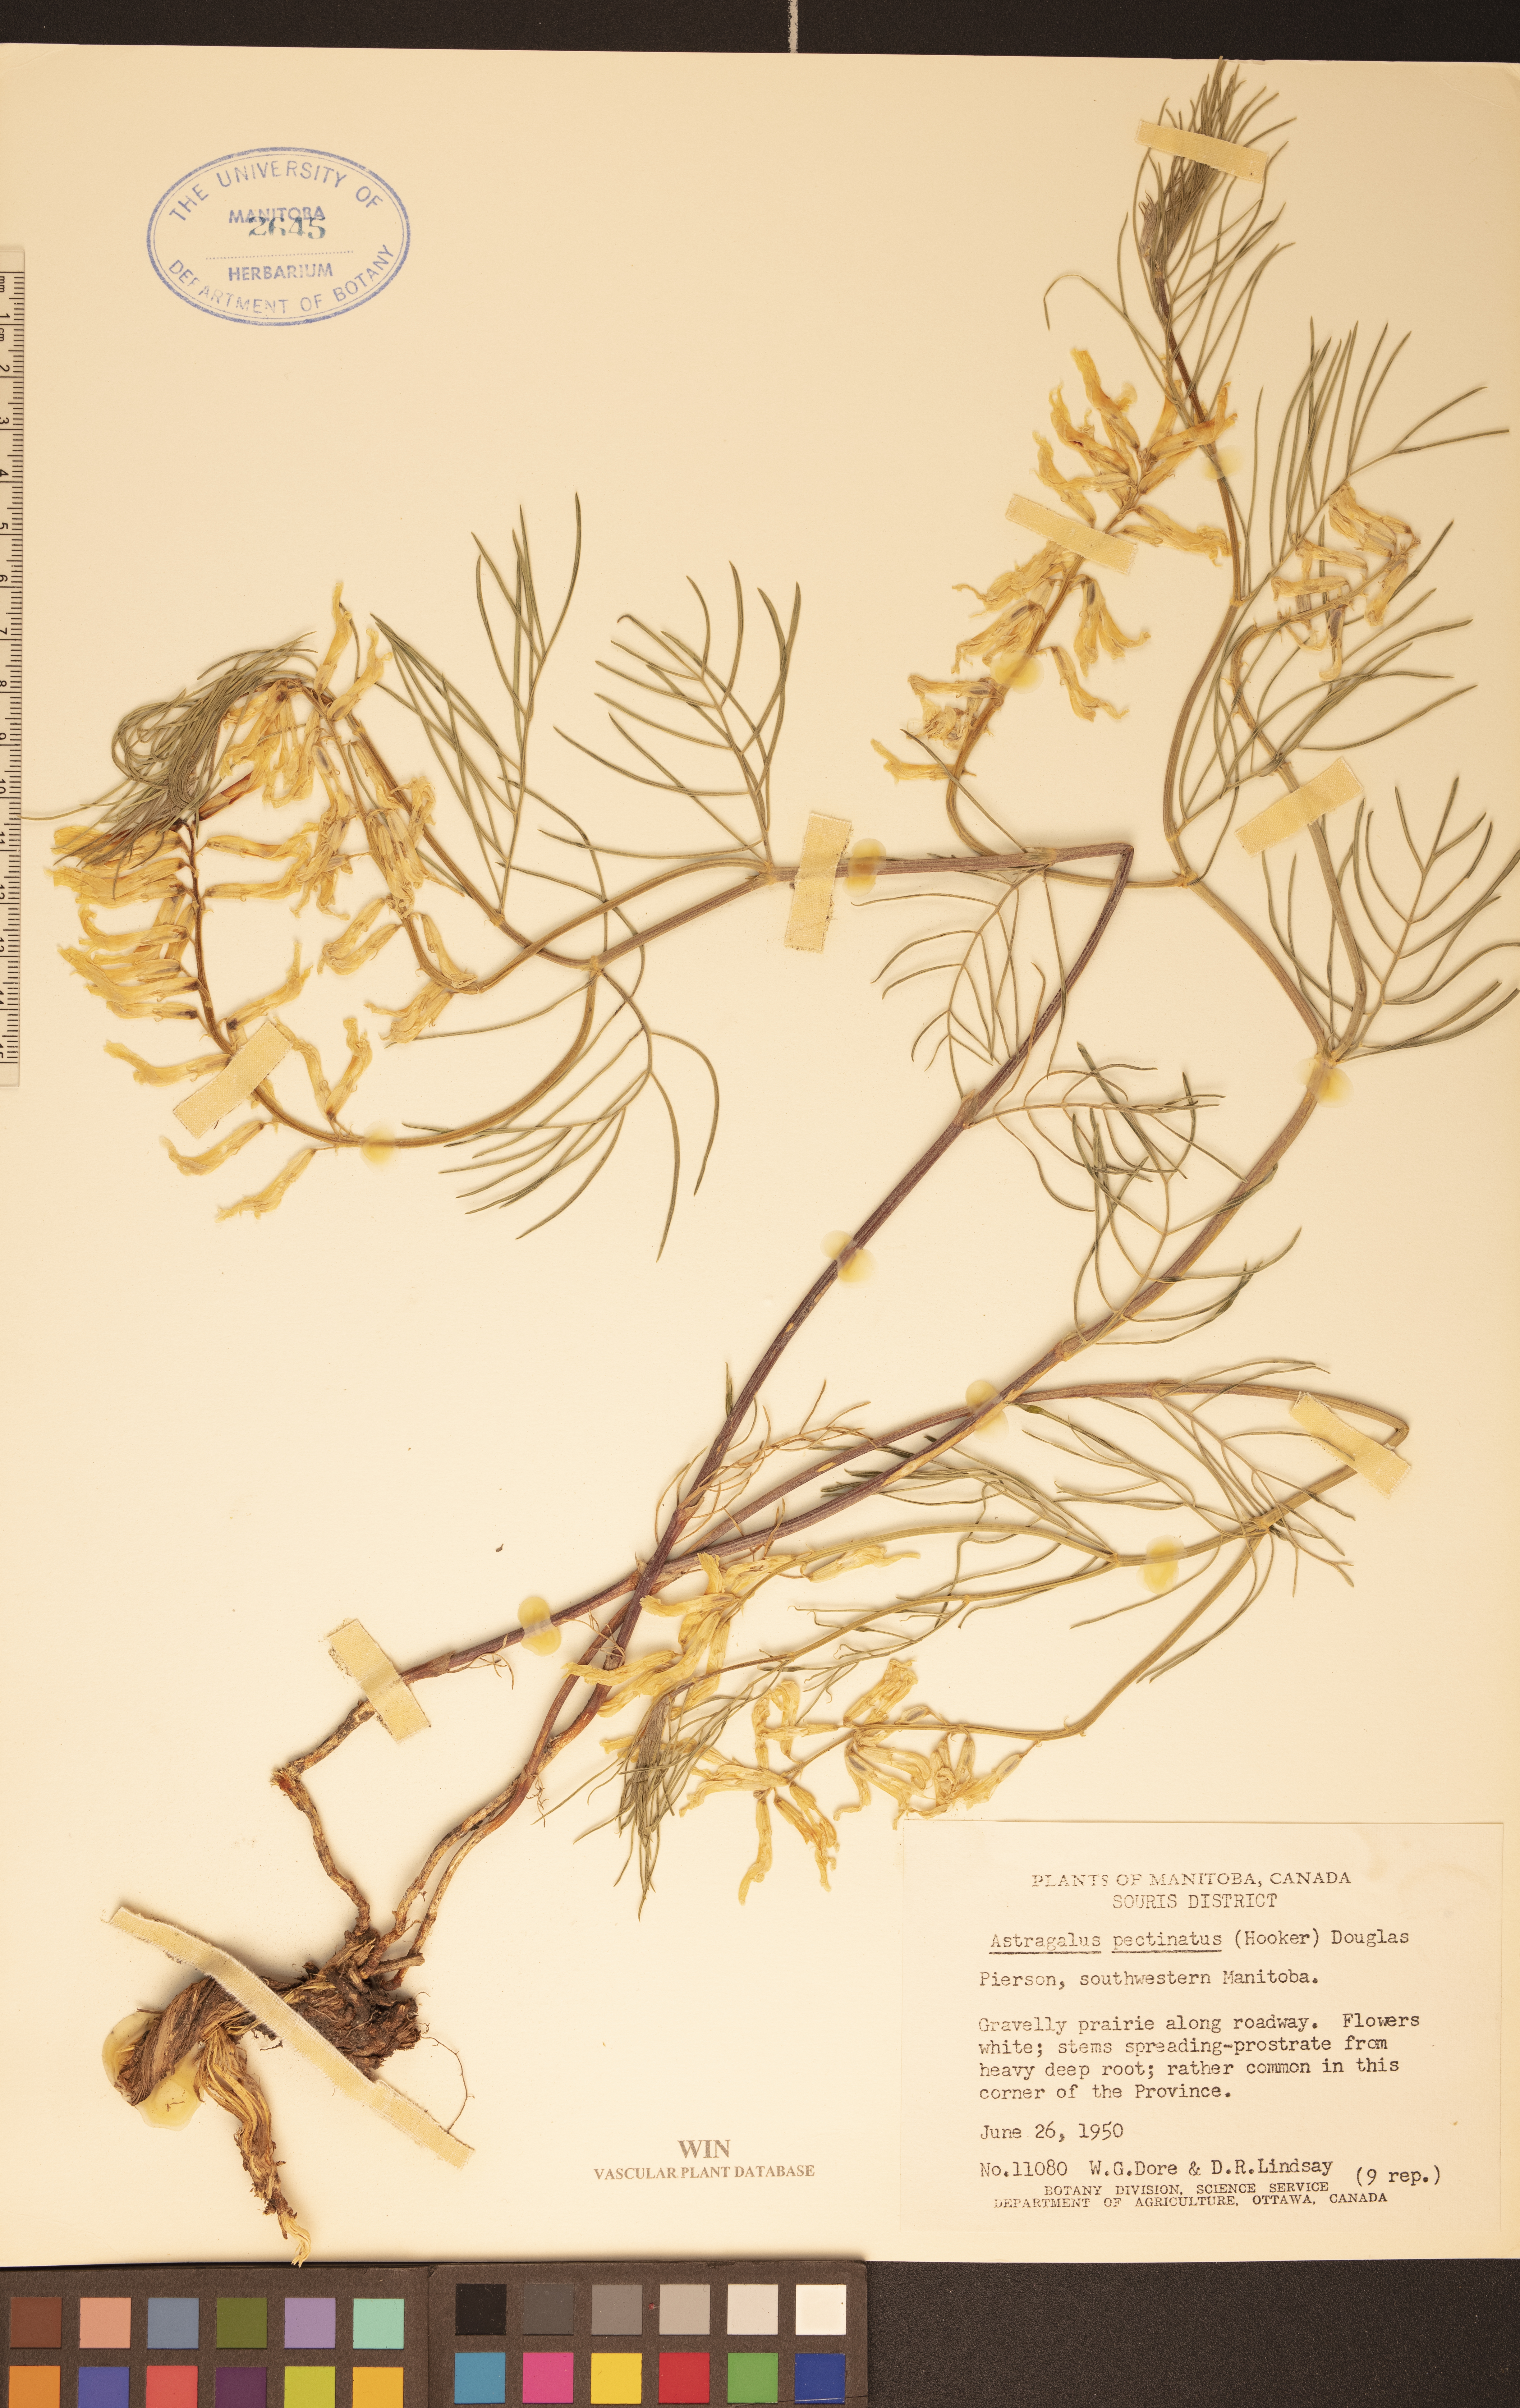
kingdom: Plantae
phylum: Tracheophyta
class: Magnoliopsida
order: Fabales
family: Fabaceae
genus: Astragalus
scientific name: Astragalus pectinatus
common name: Tine-leaf milk-vetch
